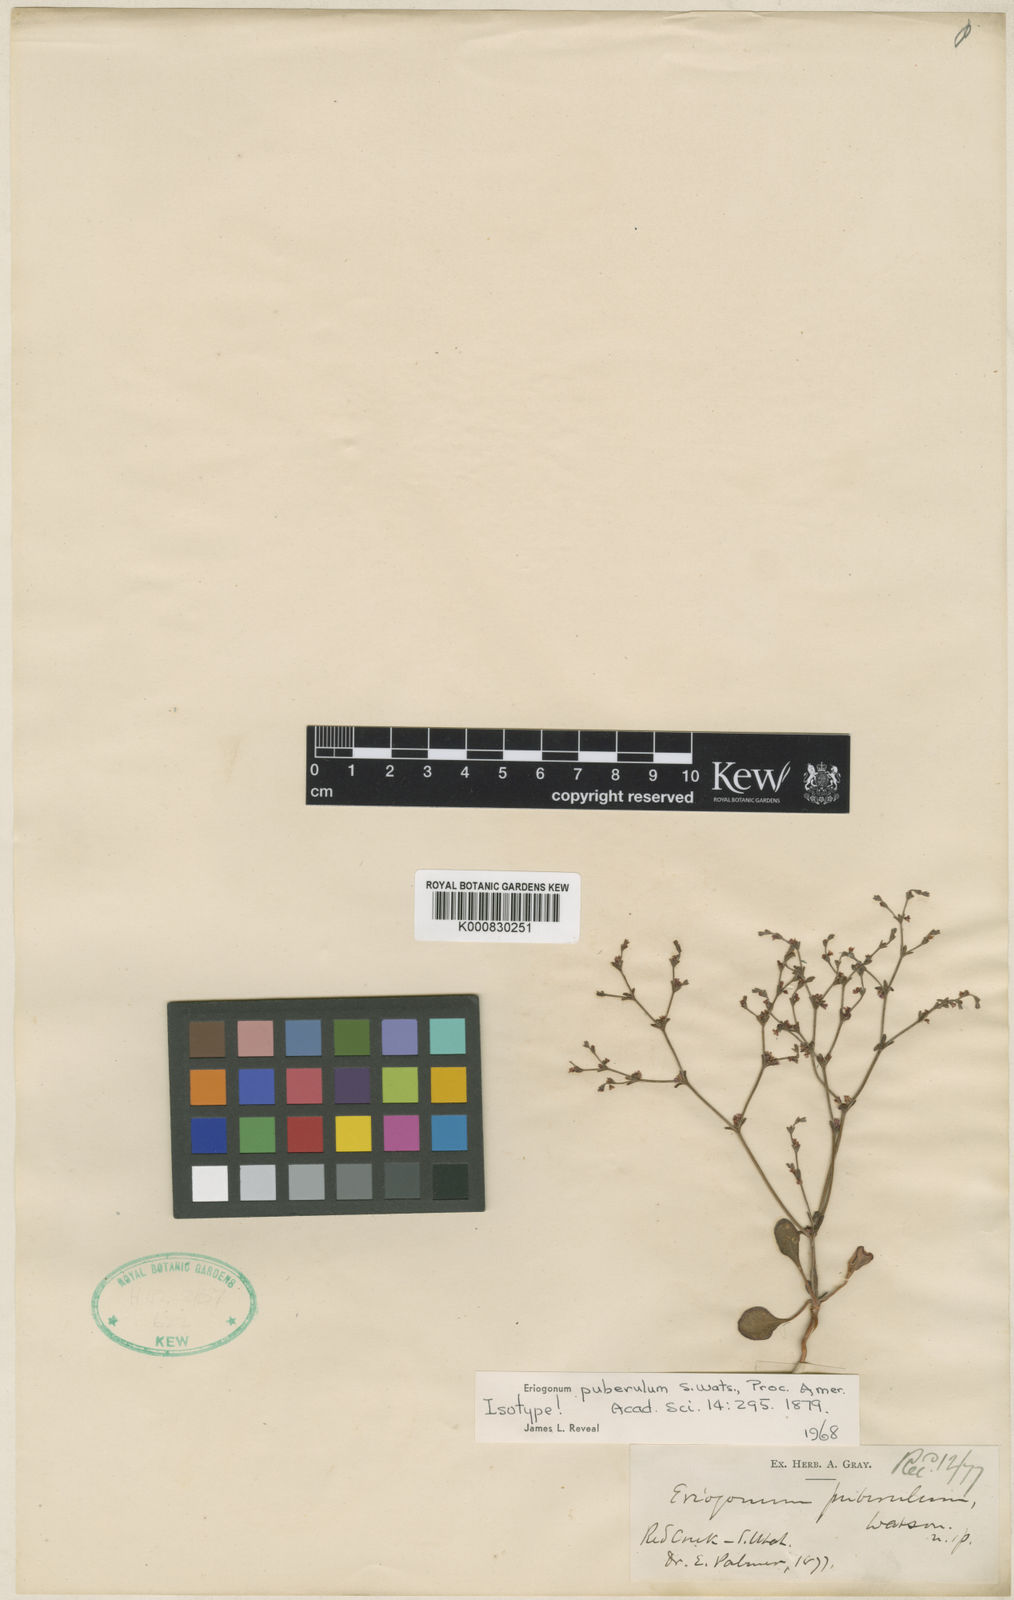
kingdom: Plantae
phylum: Tracheophyta
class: Magnoliopsida
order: Caryophyllales
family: Polygonaceae
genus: Johanneshowellia
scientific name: Johanneshowellia puberula
